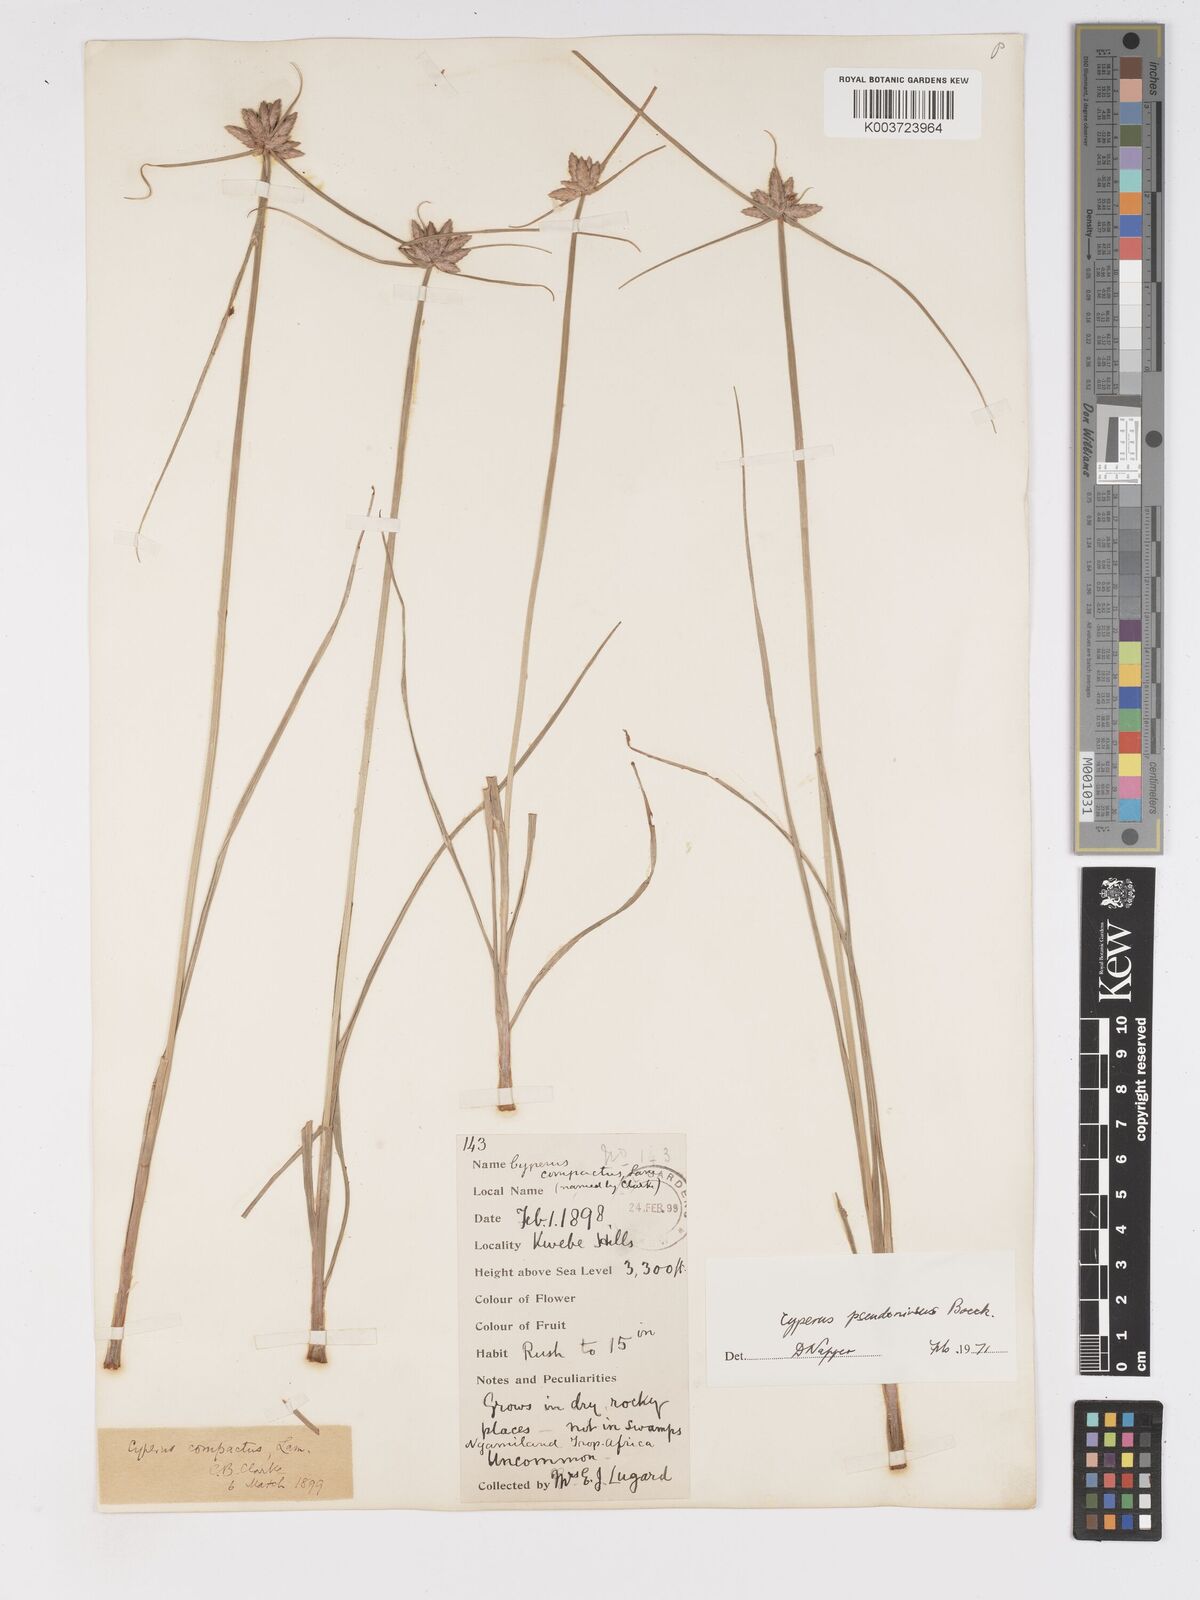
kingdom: Plantae
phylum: Tracheophyta
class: Liliopsida
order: Poales
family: Cyperaceae
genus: Cyperus
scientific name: Cyperus margaritaceus
